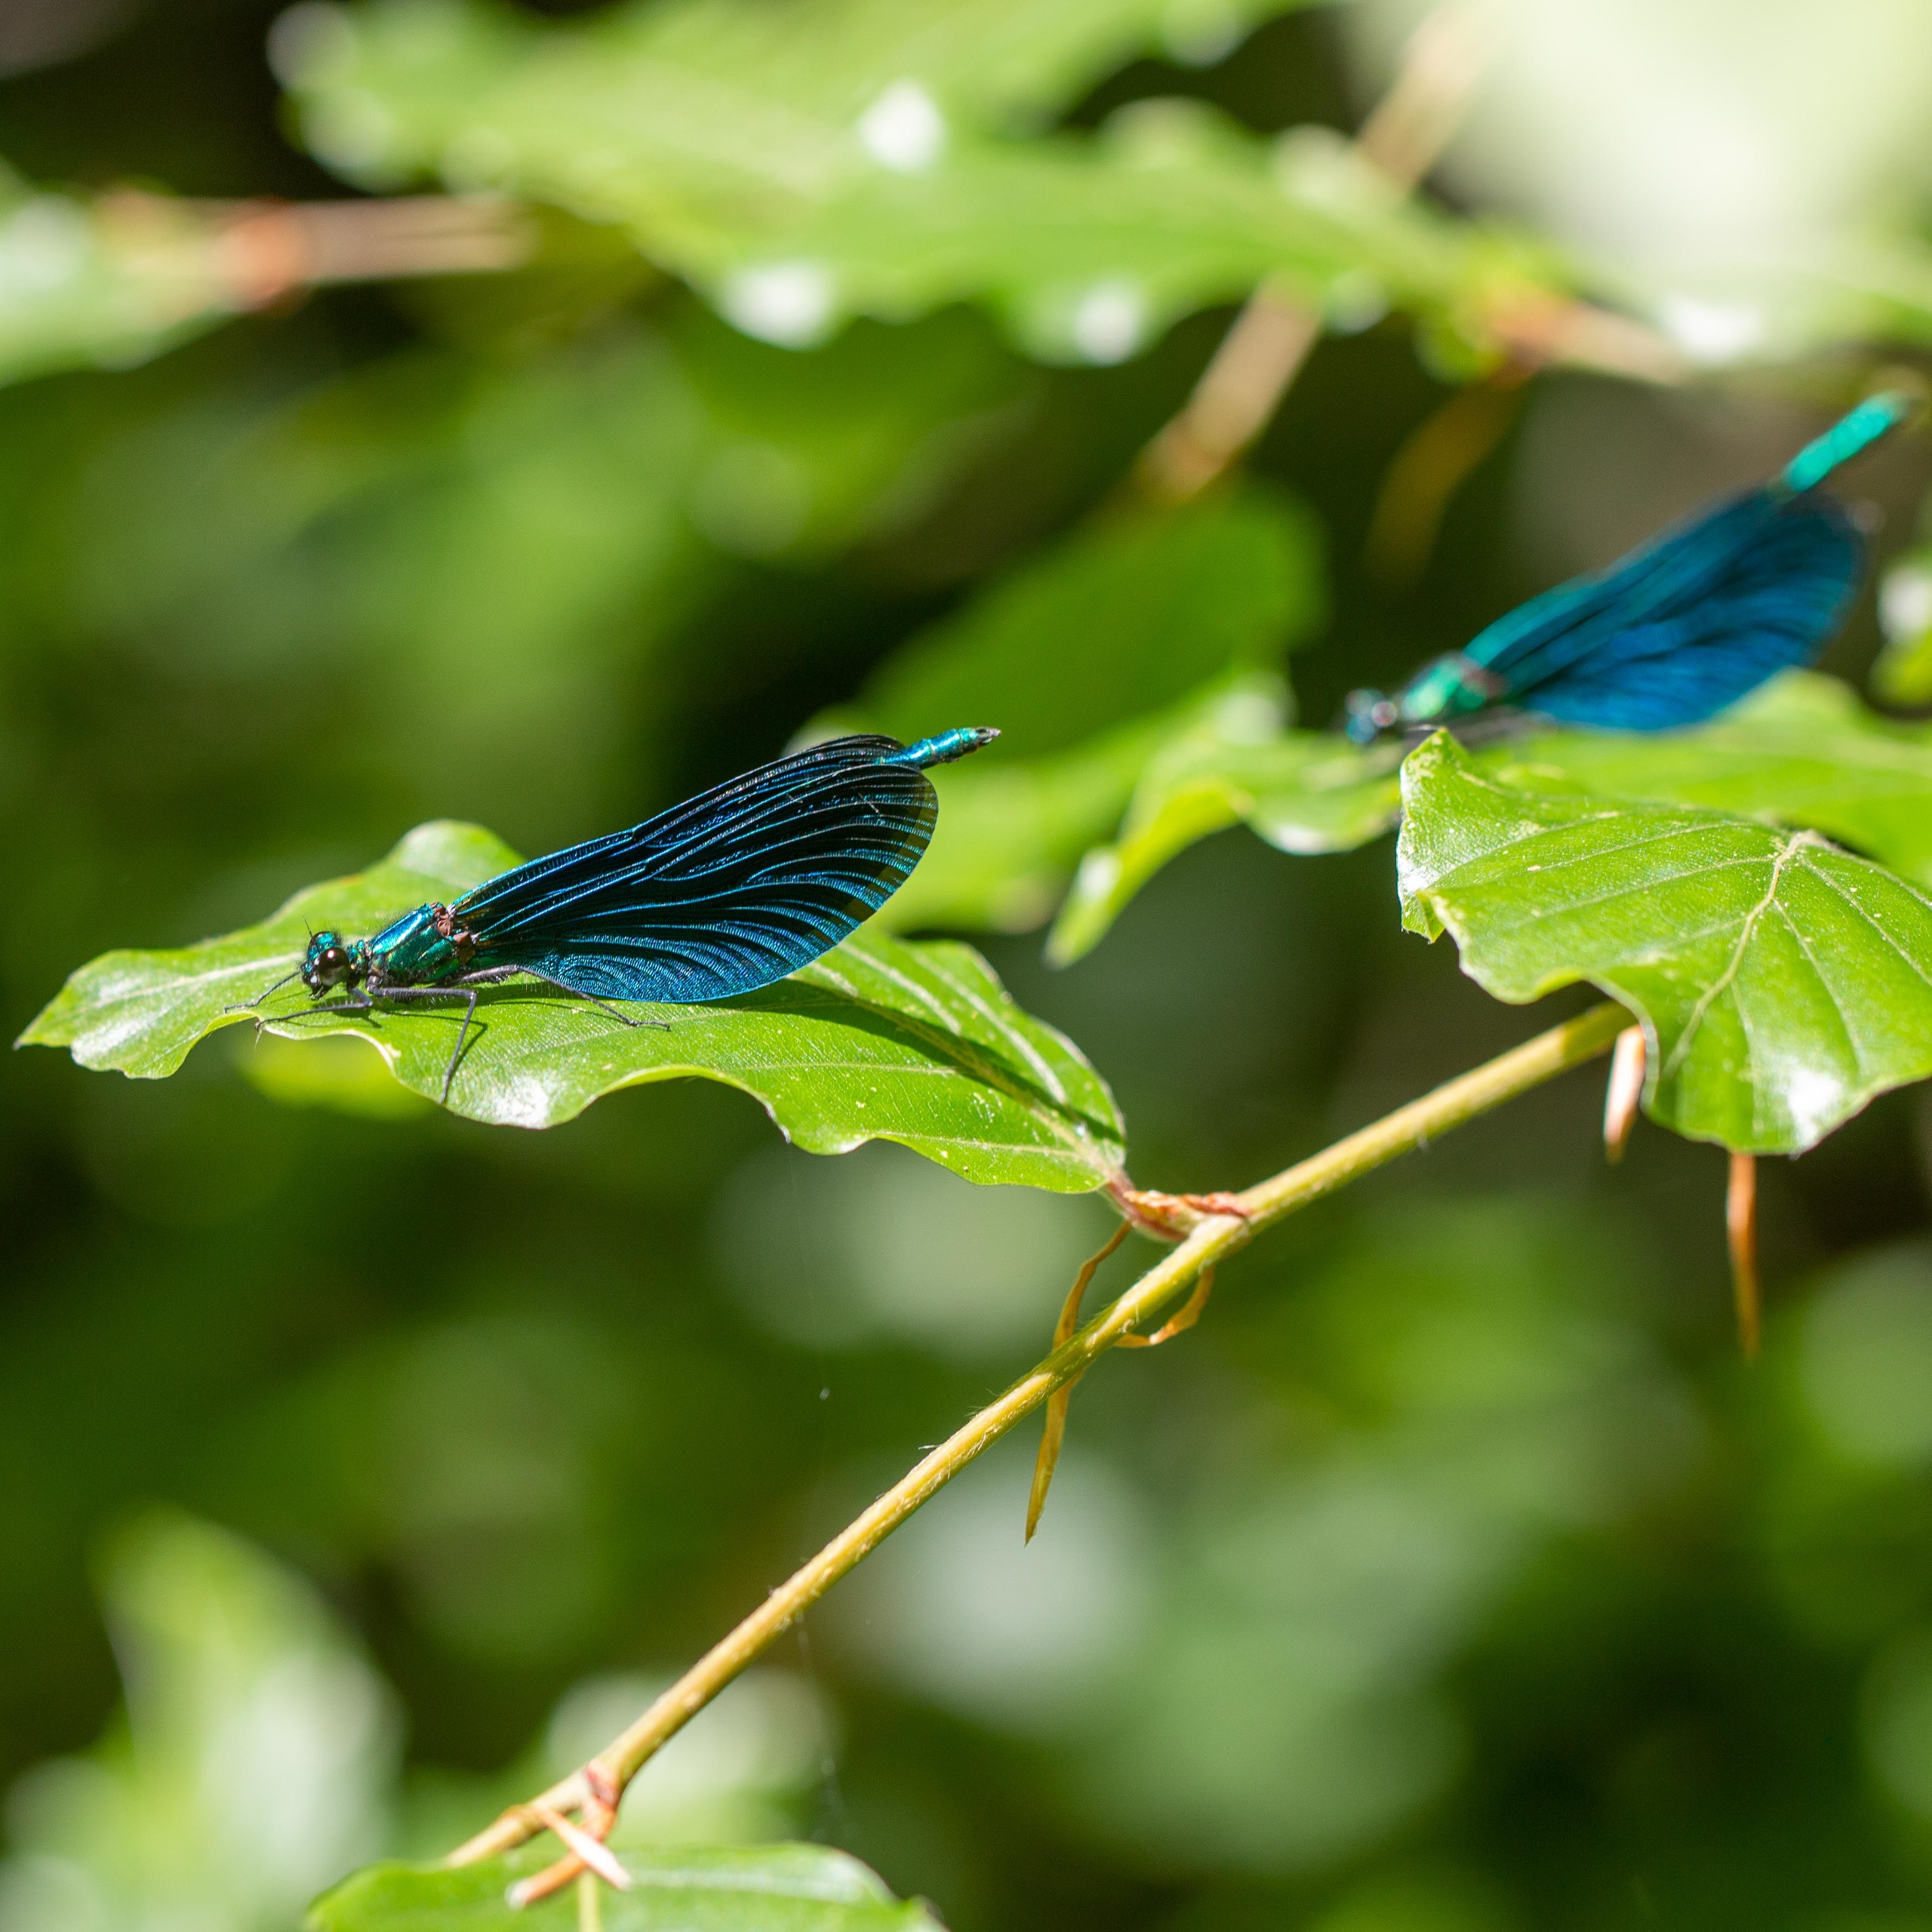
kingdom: Animalia
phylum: Arthropoda
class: Insecta
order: Odonata
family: Calopterygidae
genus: Calopteryx
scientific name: Calopteryx virgo
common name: Blåvinget pragtvandnymfe
